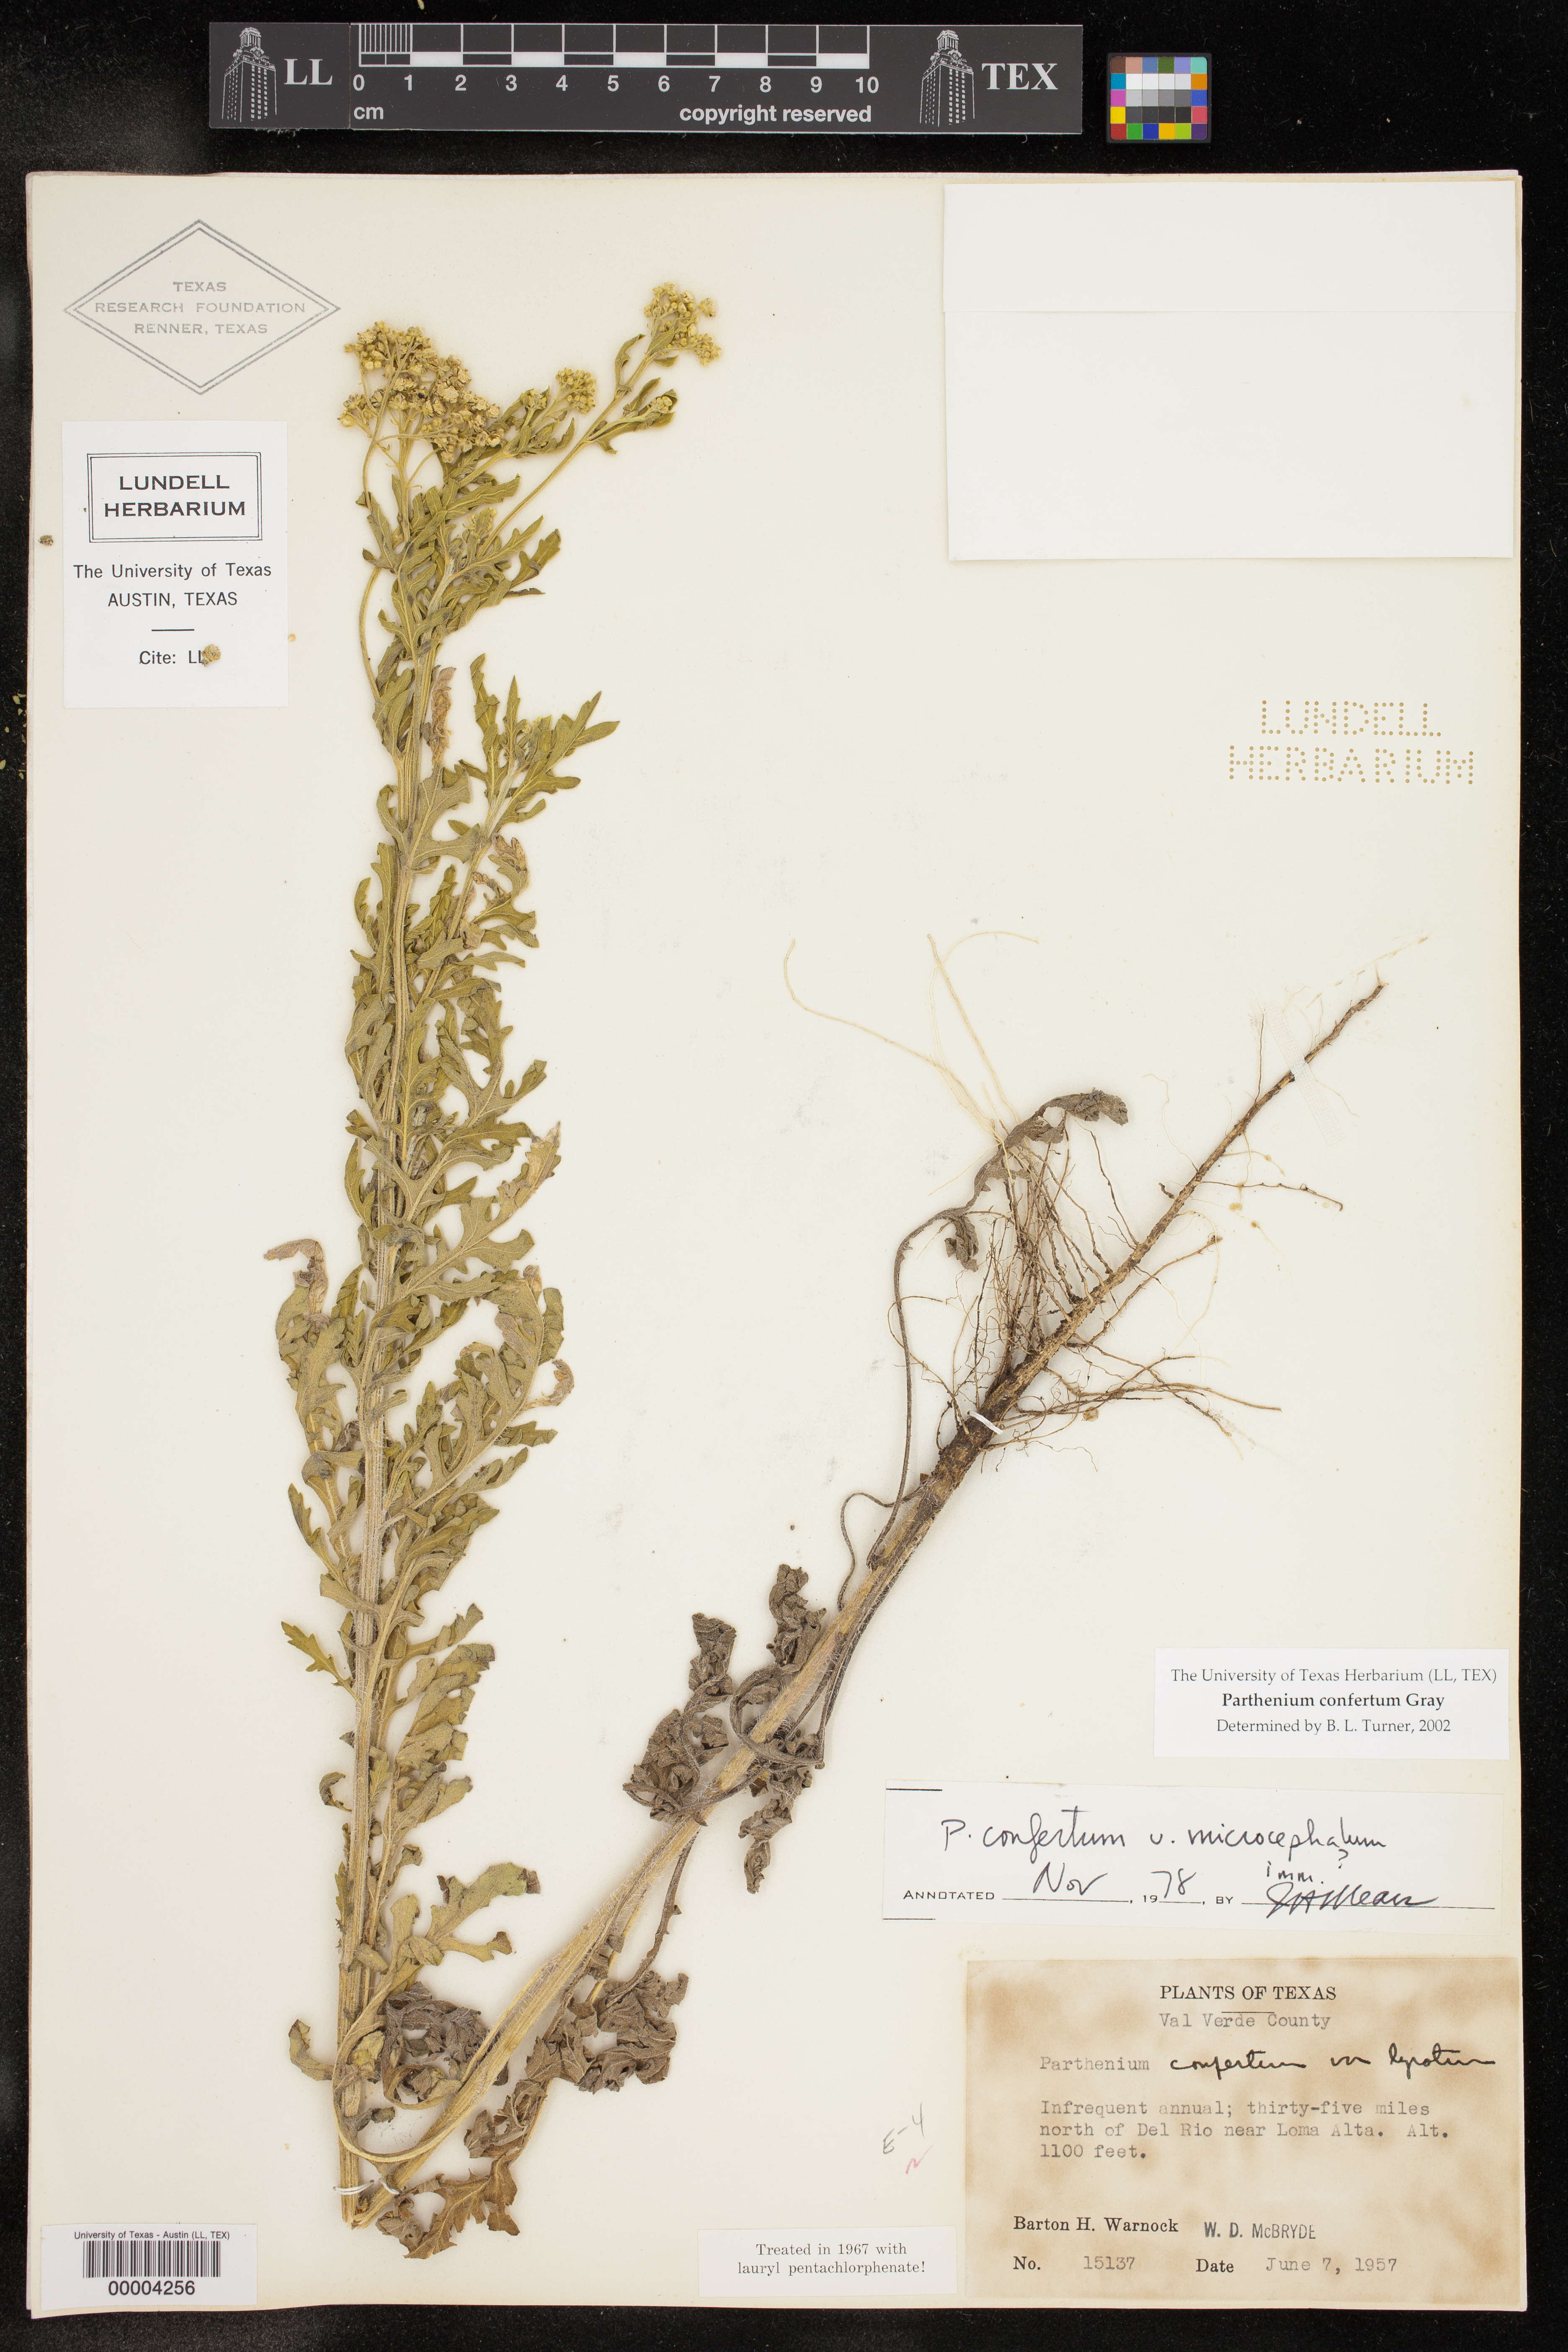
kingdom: Plantae
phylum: Tracheophyta
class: Magnoliopsida
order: Asterales
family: Asteraceae
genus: Parthenium
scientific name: Parthenium confertum
